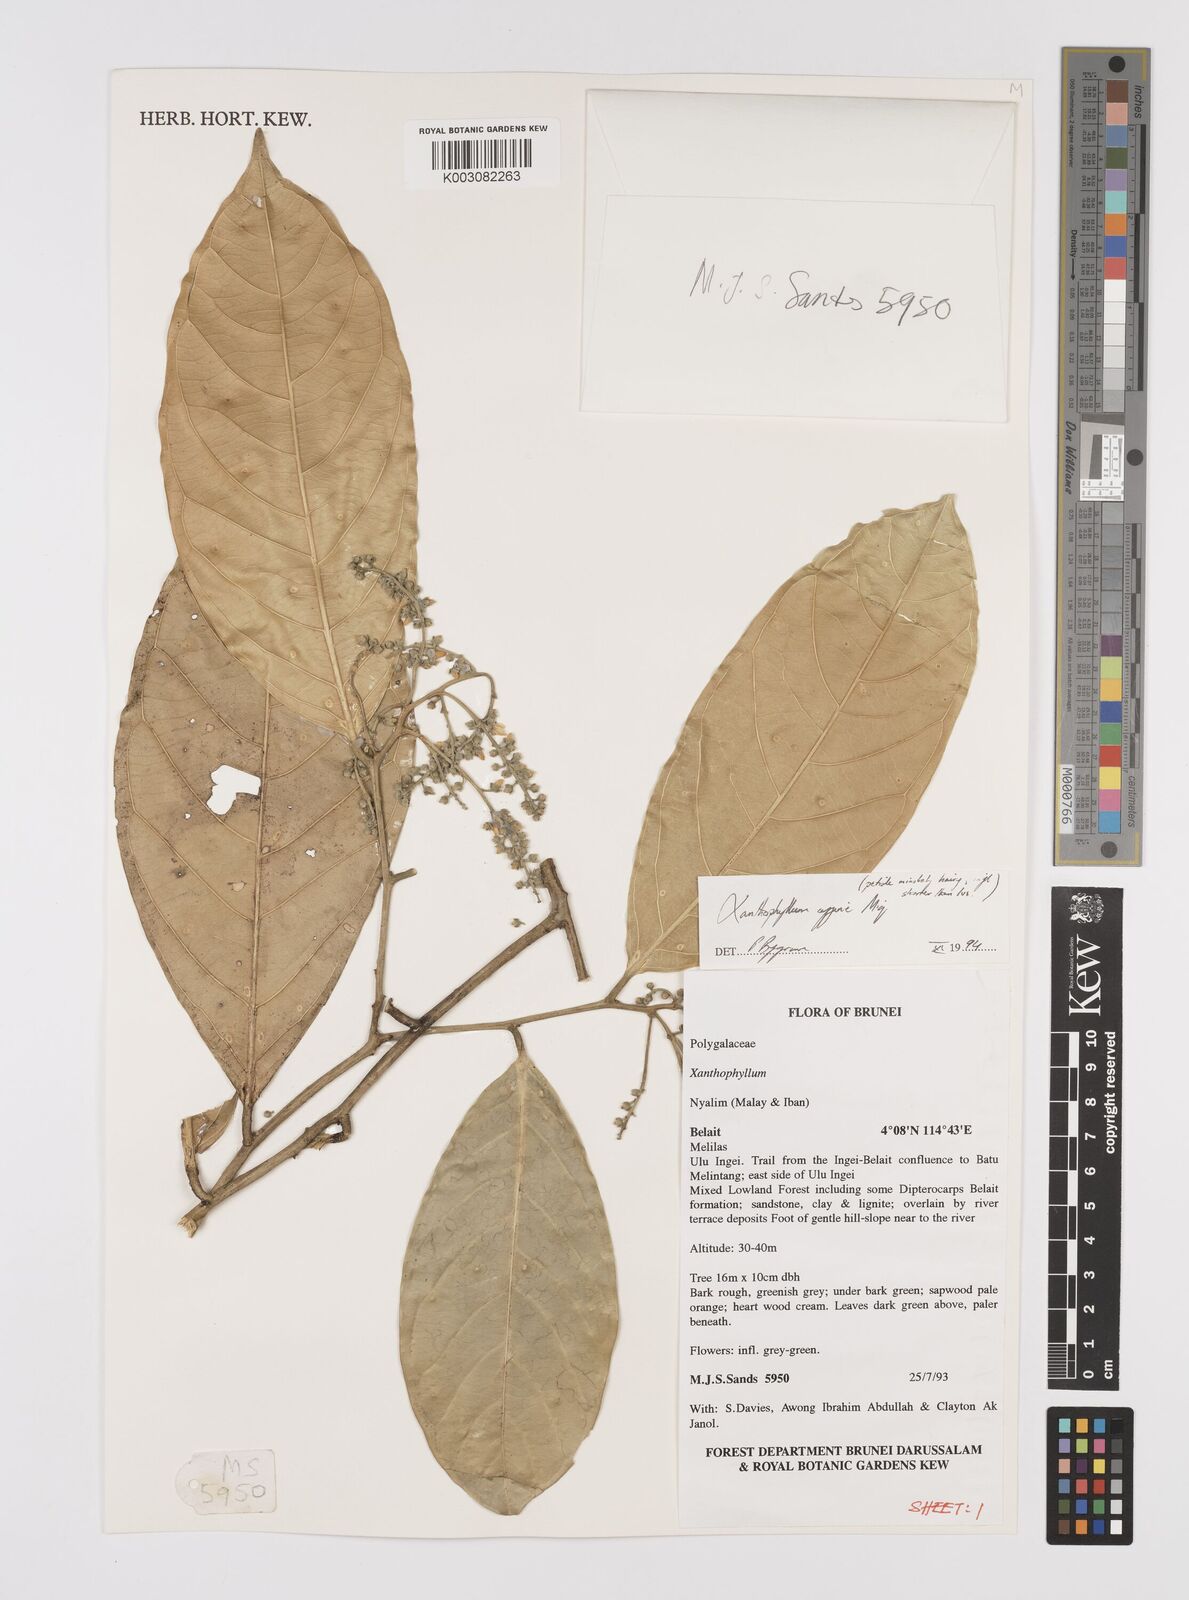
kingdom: Plantae
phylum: Tracheophyta
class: Magnoliopsida
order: Fabales
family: Polygalaceae
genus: Xanthophyllum
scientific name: Xanthophyllum flavescens
